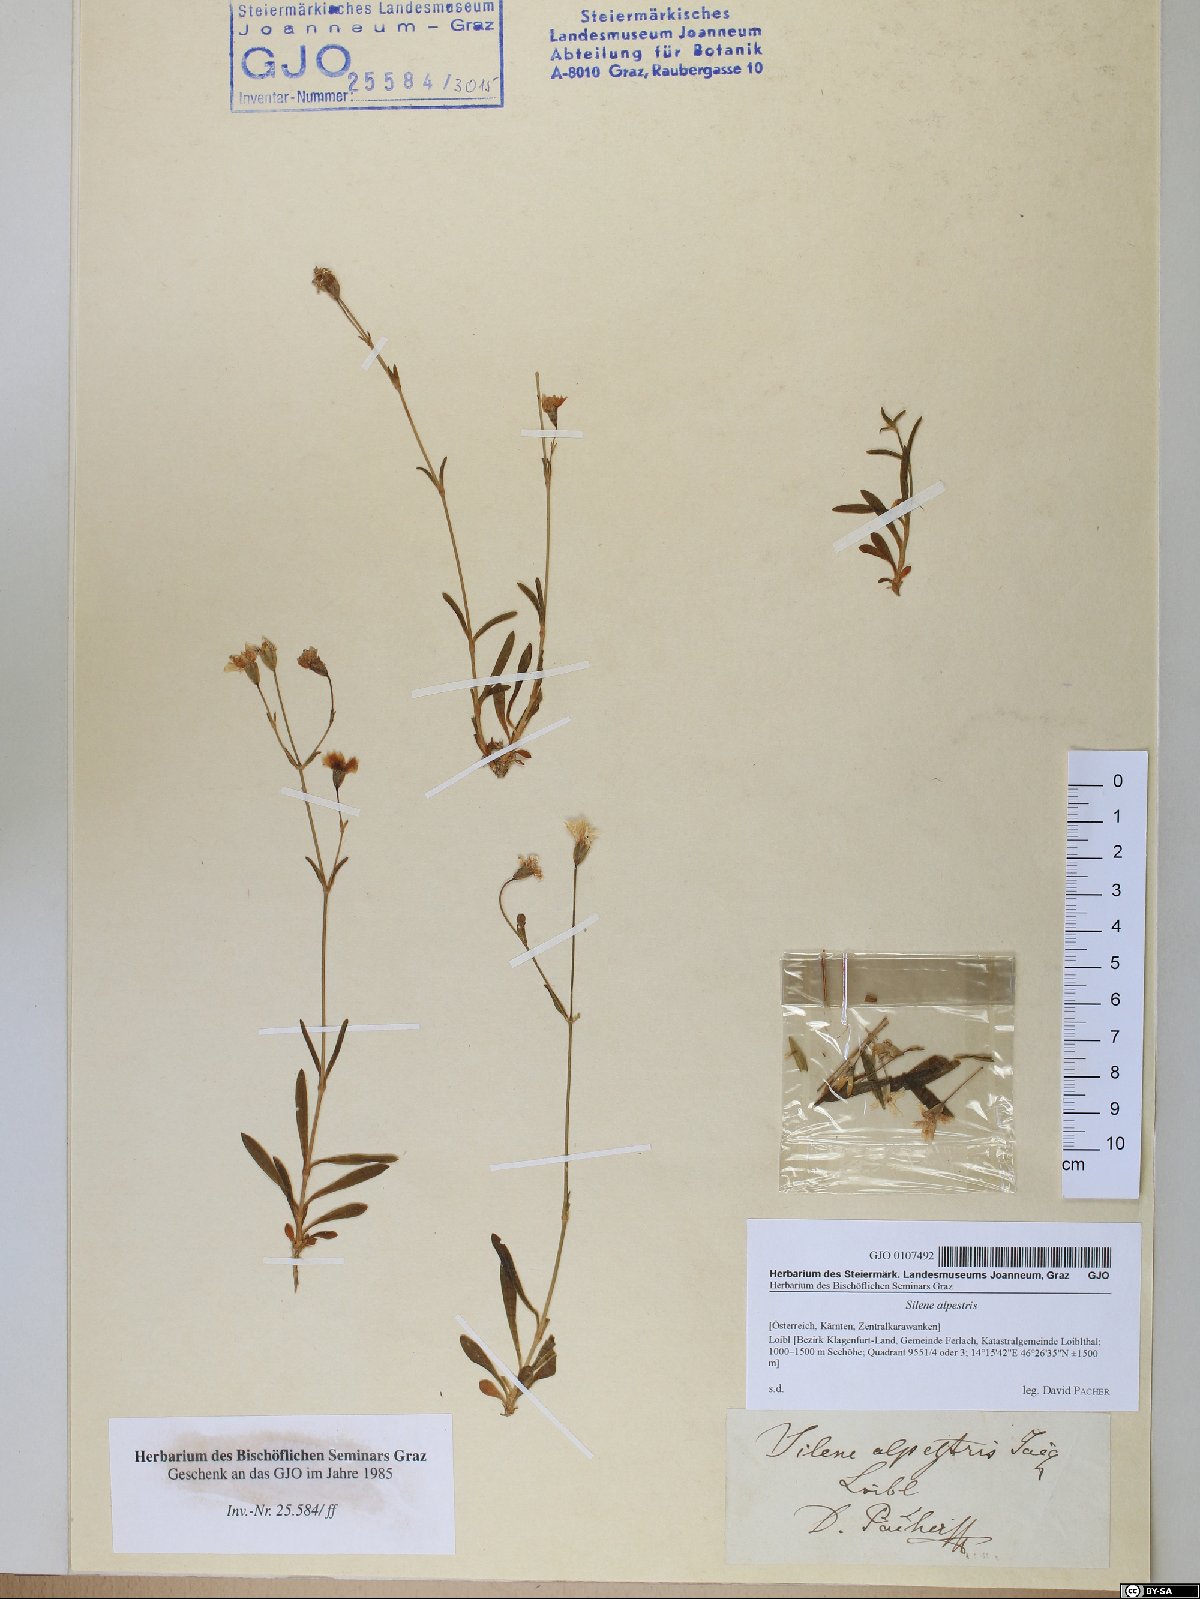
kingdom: Plantae
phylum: Tracheophyta
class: Magnoliopsida
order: Caryophyllales
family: Caryophyllaceae
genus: Heliosperma
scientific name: Heliosperma alpestre
